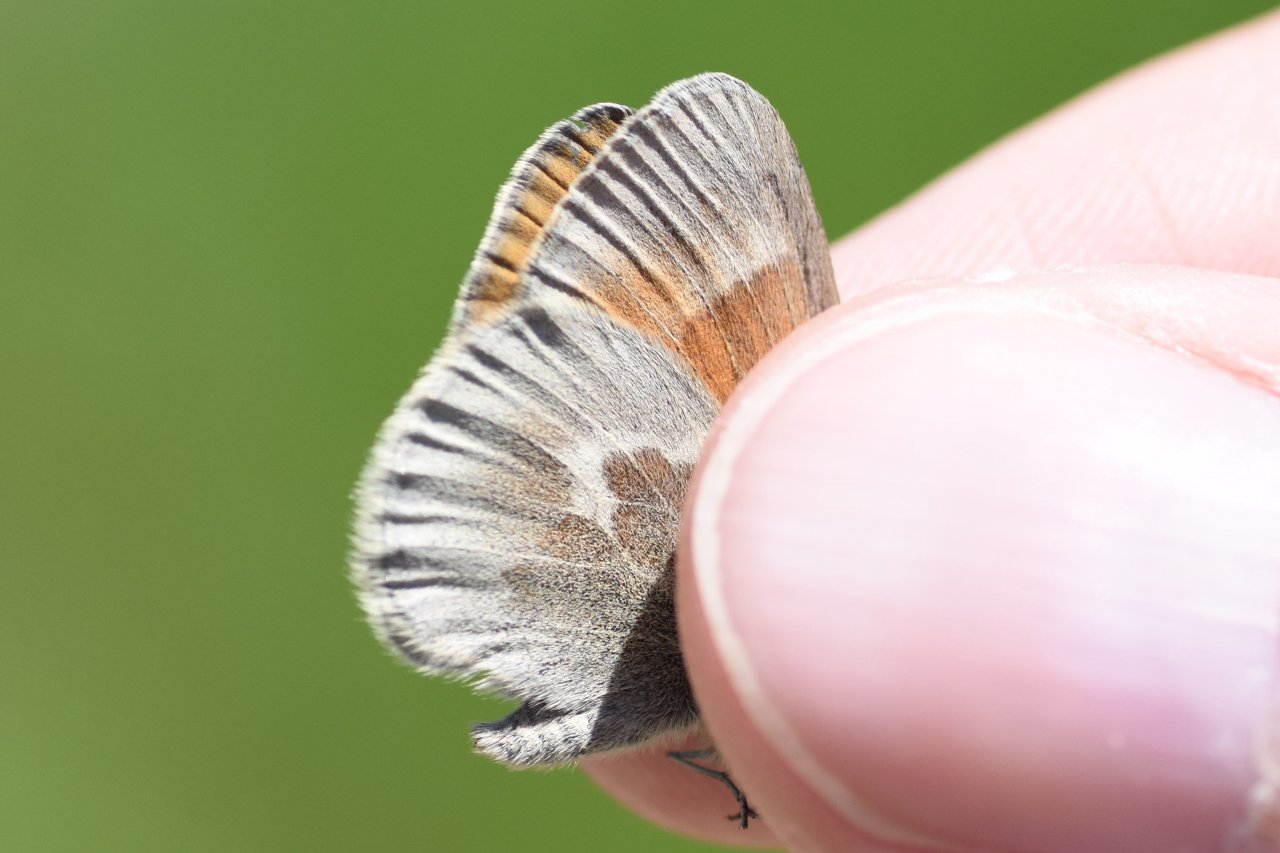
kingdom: Animalia
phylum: Arthropoda
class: Insecta
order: Lepidoptera
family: Nymphalidae
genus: Coenonympha
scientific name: Coenonympha tullia
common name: Large Heath
